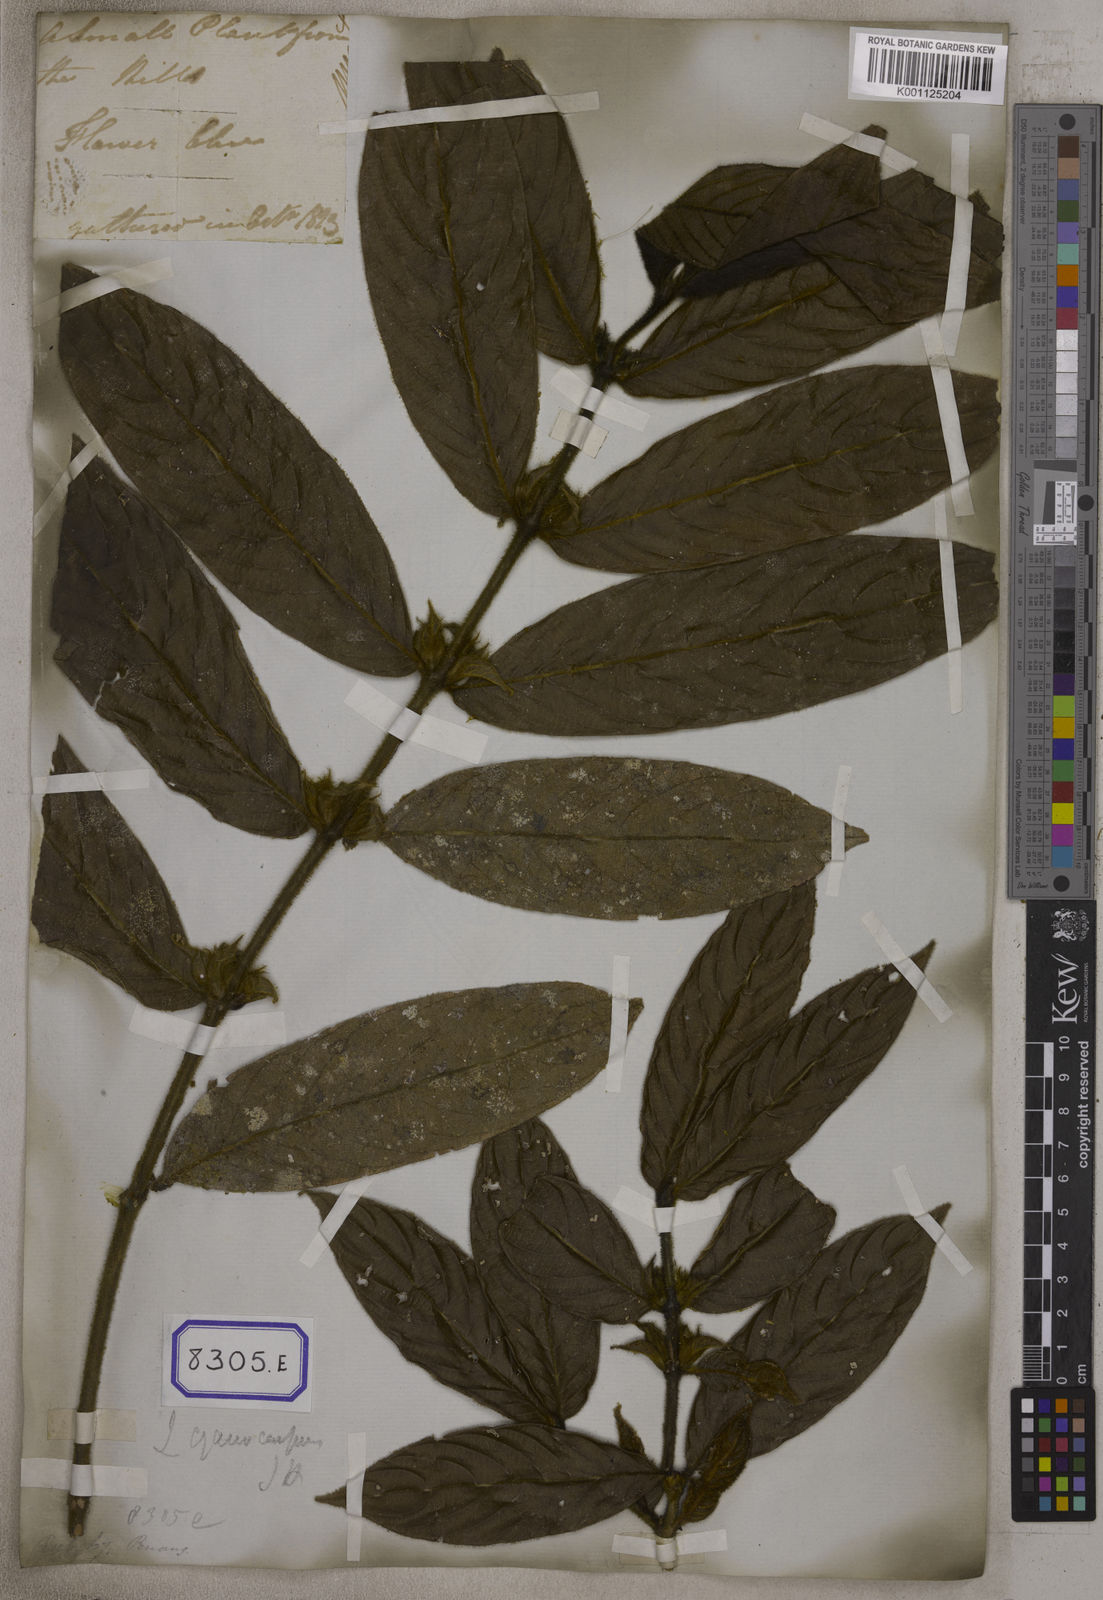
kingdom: Plantae
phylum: Tracheophyta
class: Magnoliopsida
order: Gentianales
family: Rubiaceae
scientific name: Rubiaceae
